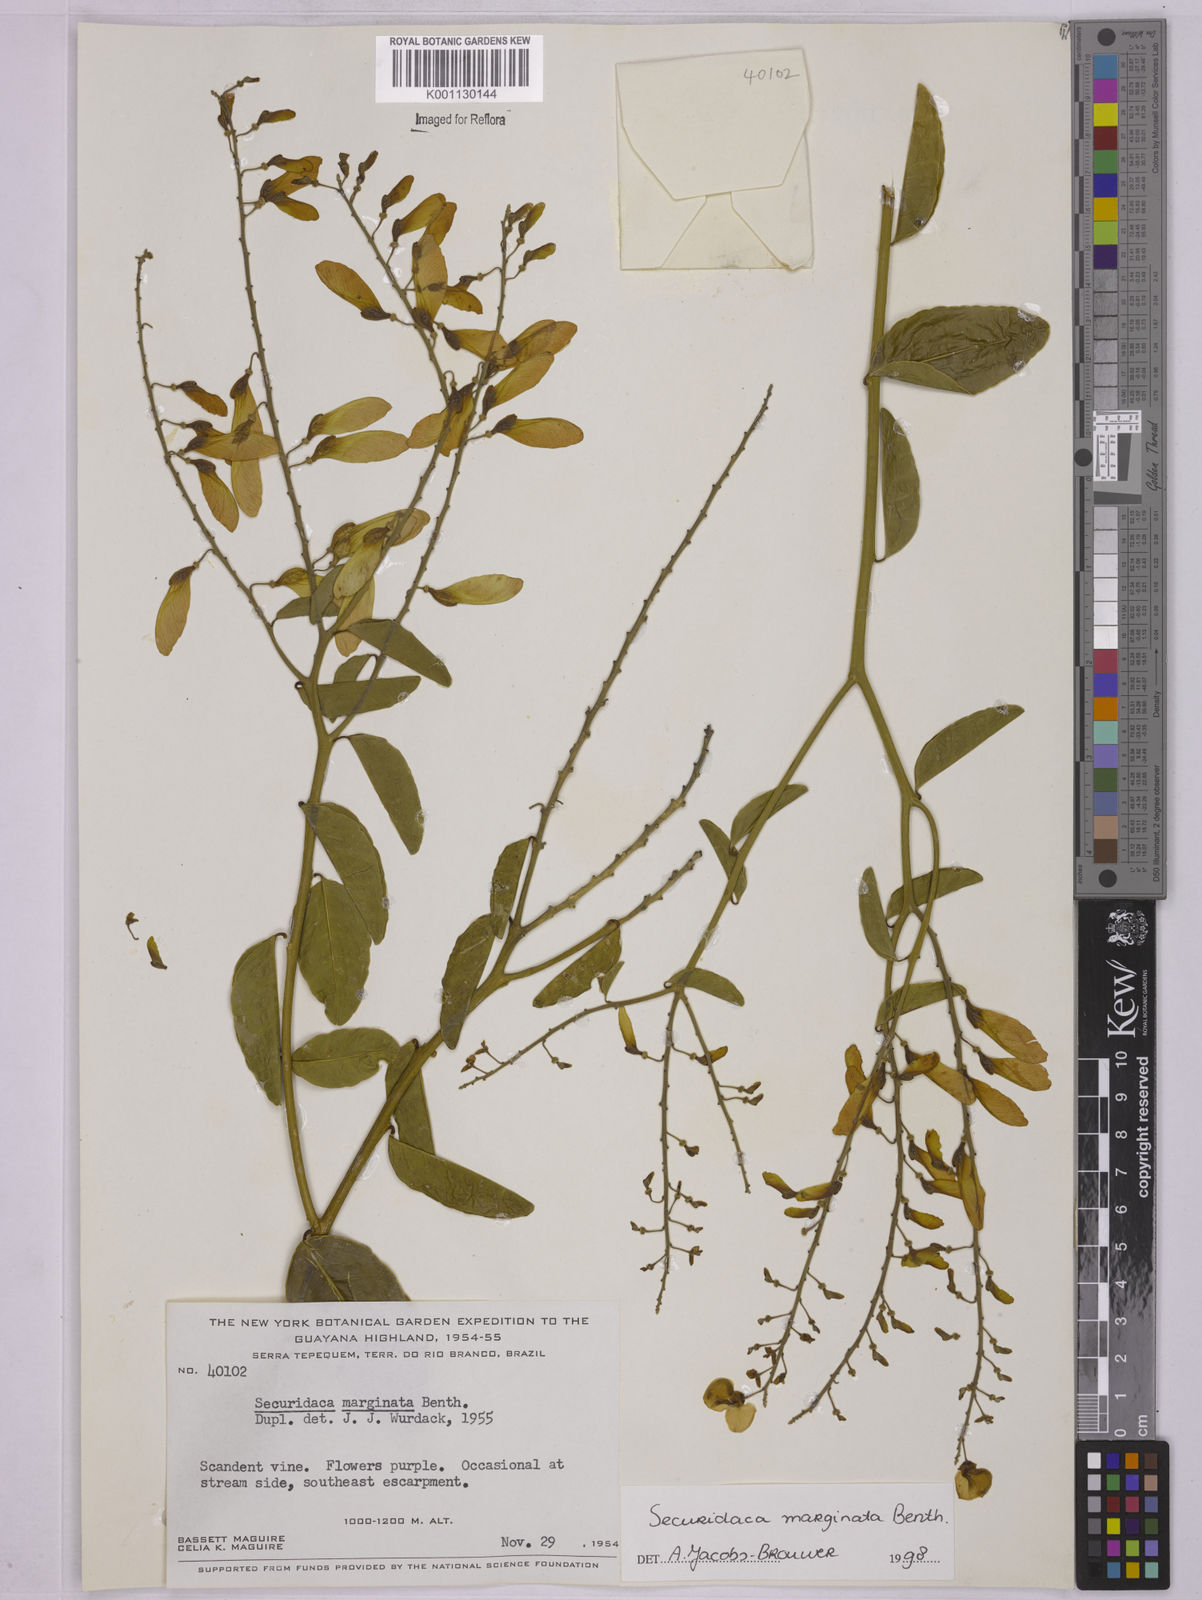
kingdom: Plantae
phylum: Tracheophyta
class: Magnoliopsida
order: Fabales
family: Polygalaceae
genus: Securidaca
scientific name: Securidaca marginata
